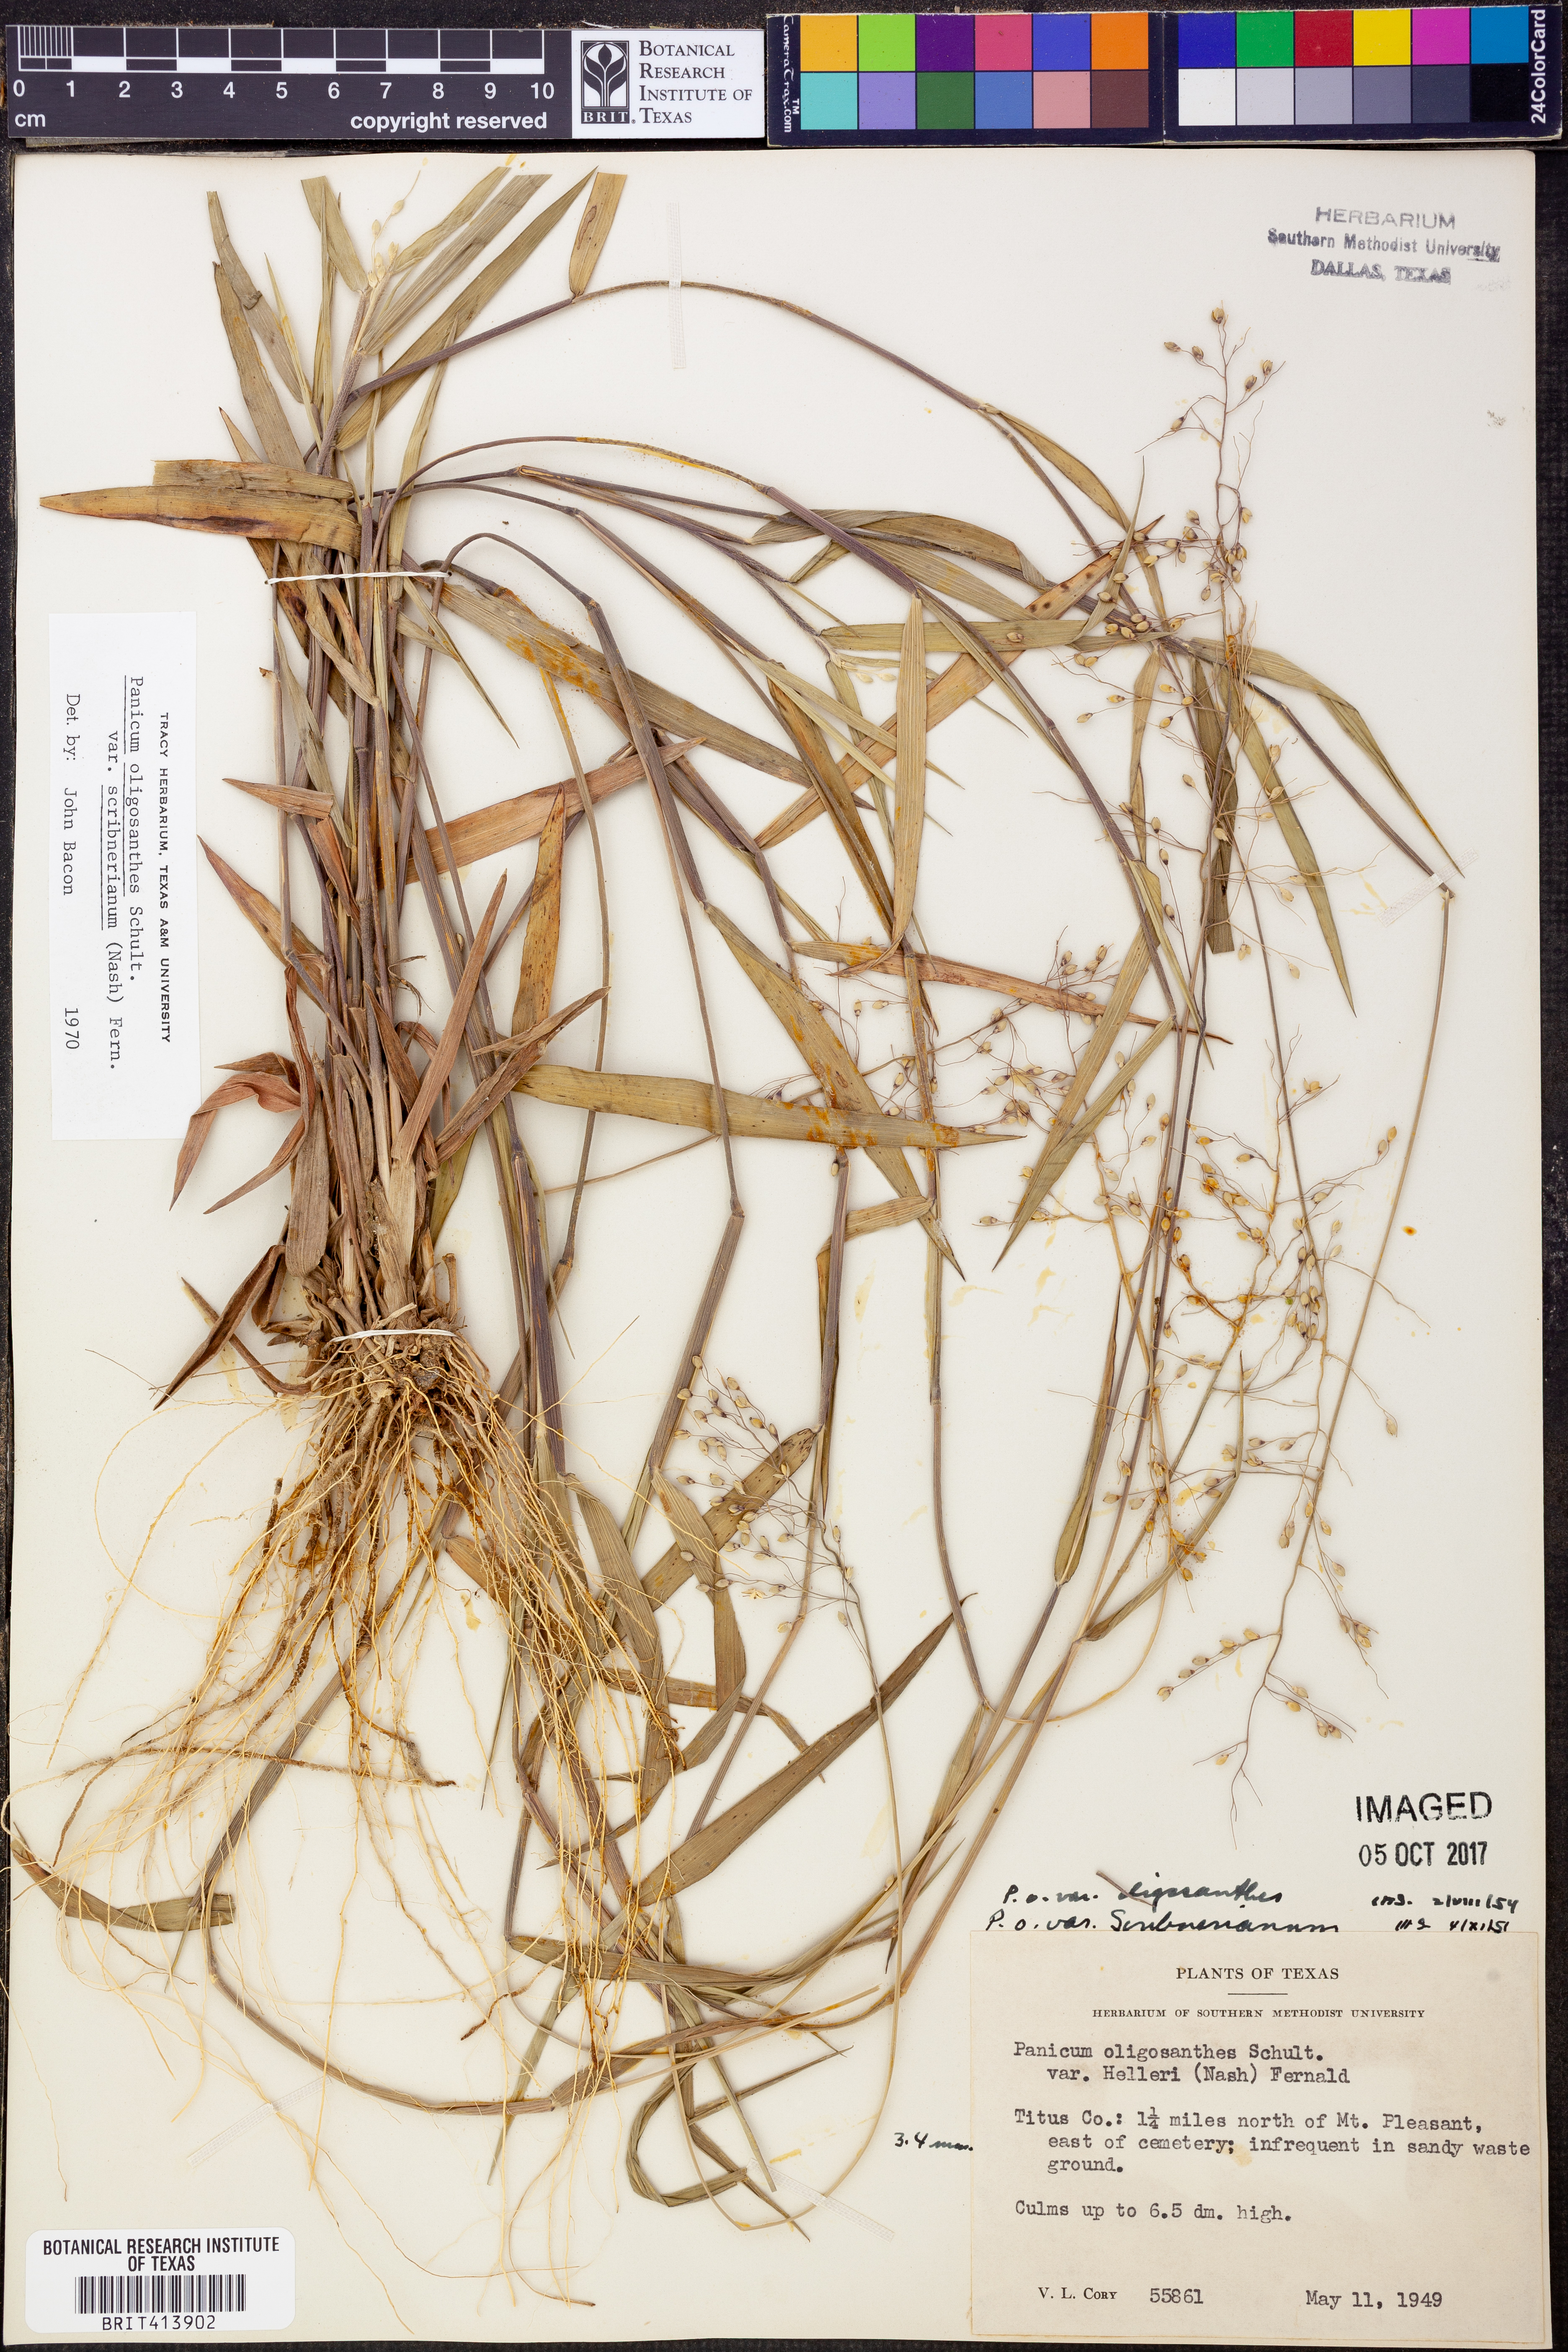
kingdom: Plantae
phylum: Tracheophyta
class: Liliopsida
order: Poales
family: Poaceae
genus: Dichanthelium
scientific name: Dichanthelium scribnerianum
